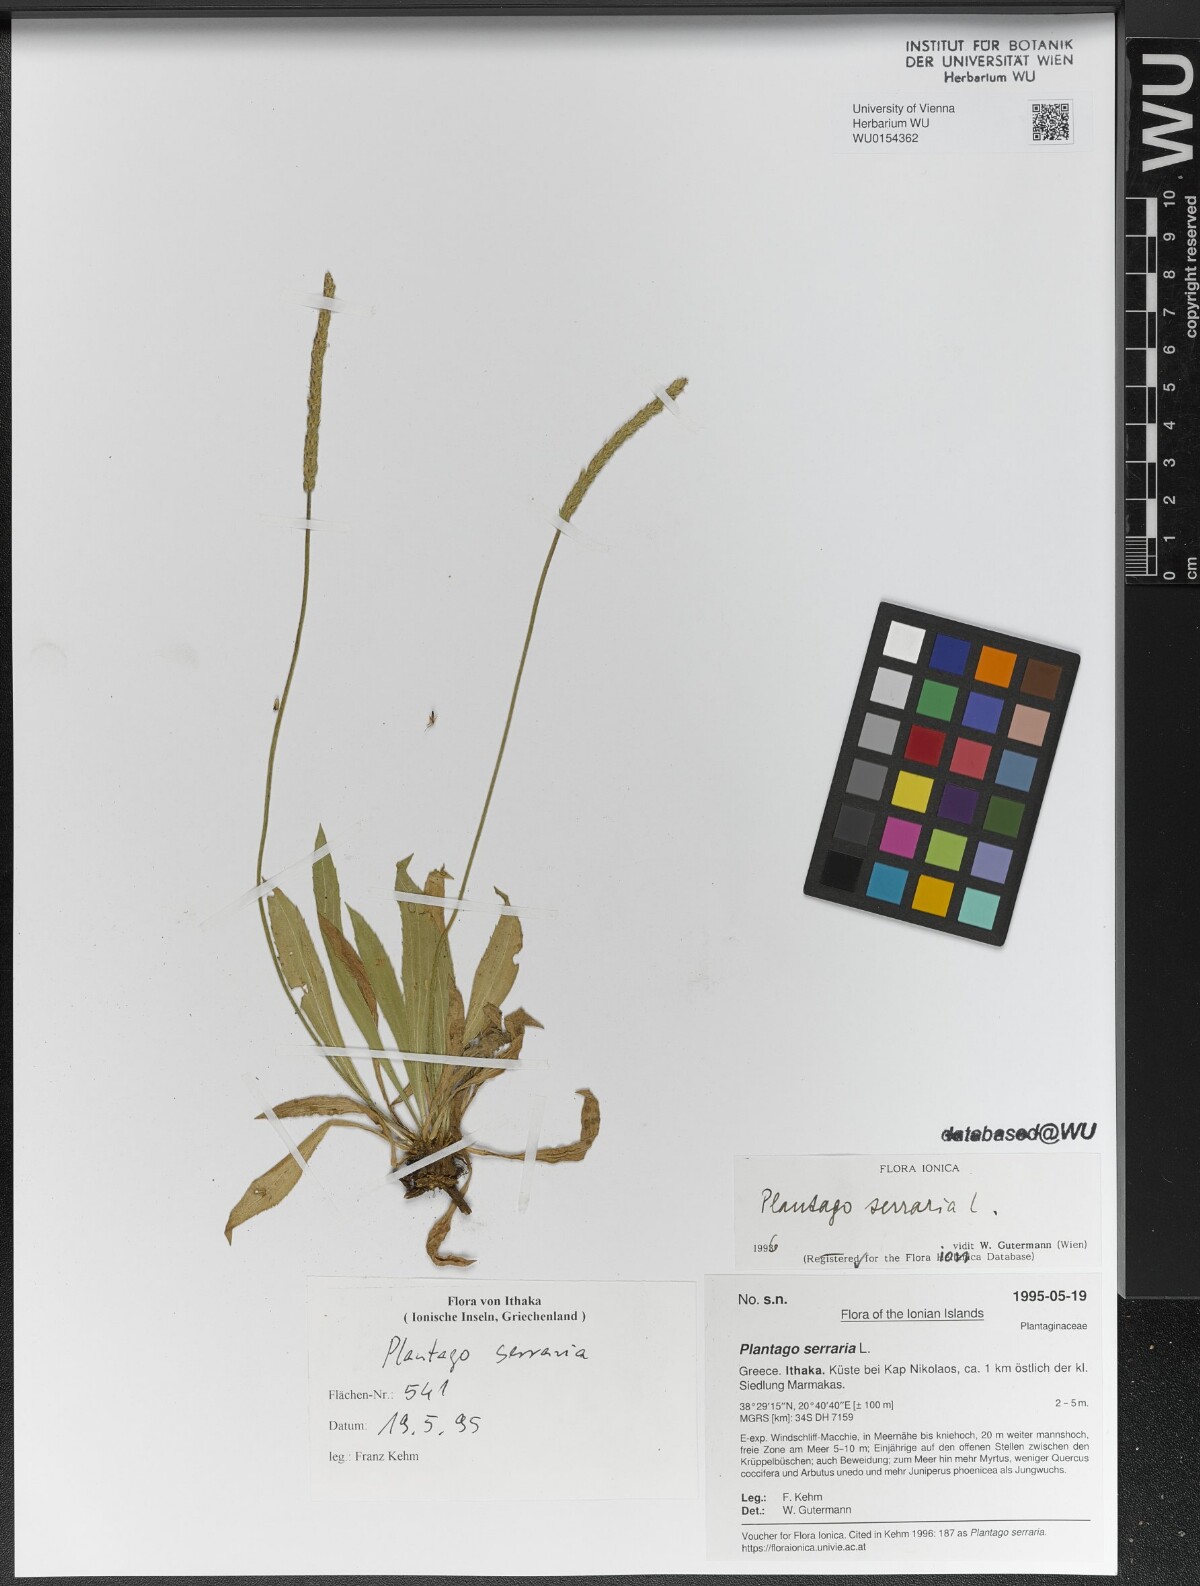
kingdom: Plantae
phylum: Tracheophyta
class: Magnoliopsida
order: Lamiales
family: Plantaginaceae
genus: Plantago
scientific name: Plantago serraria
